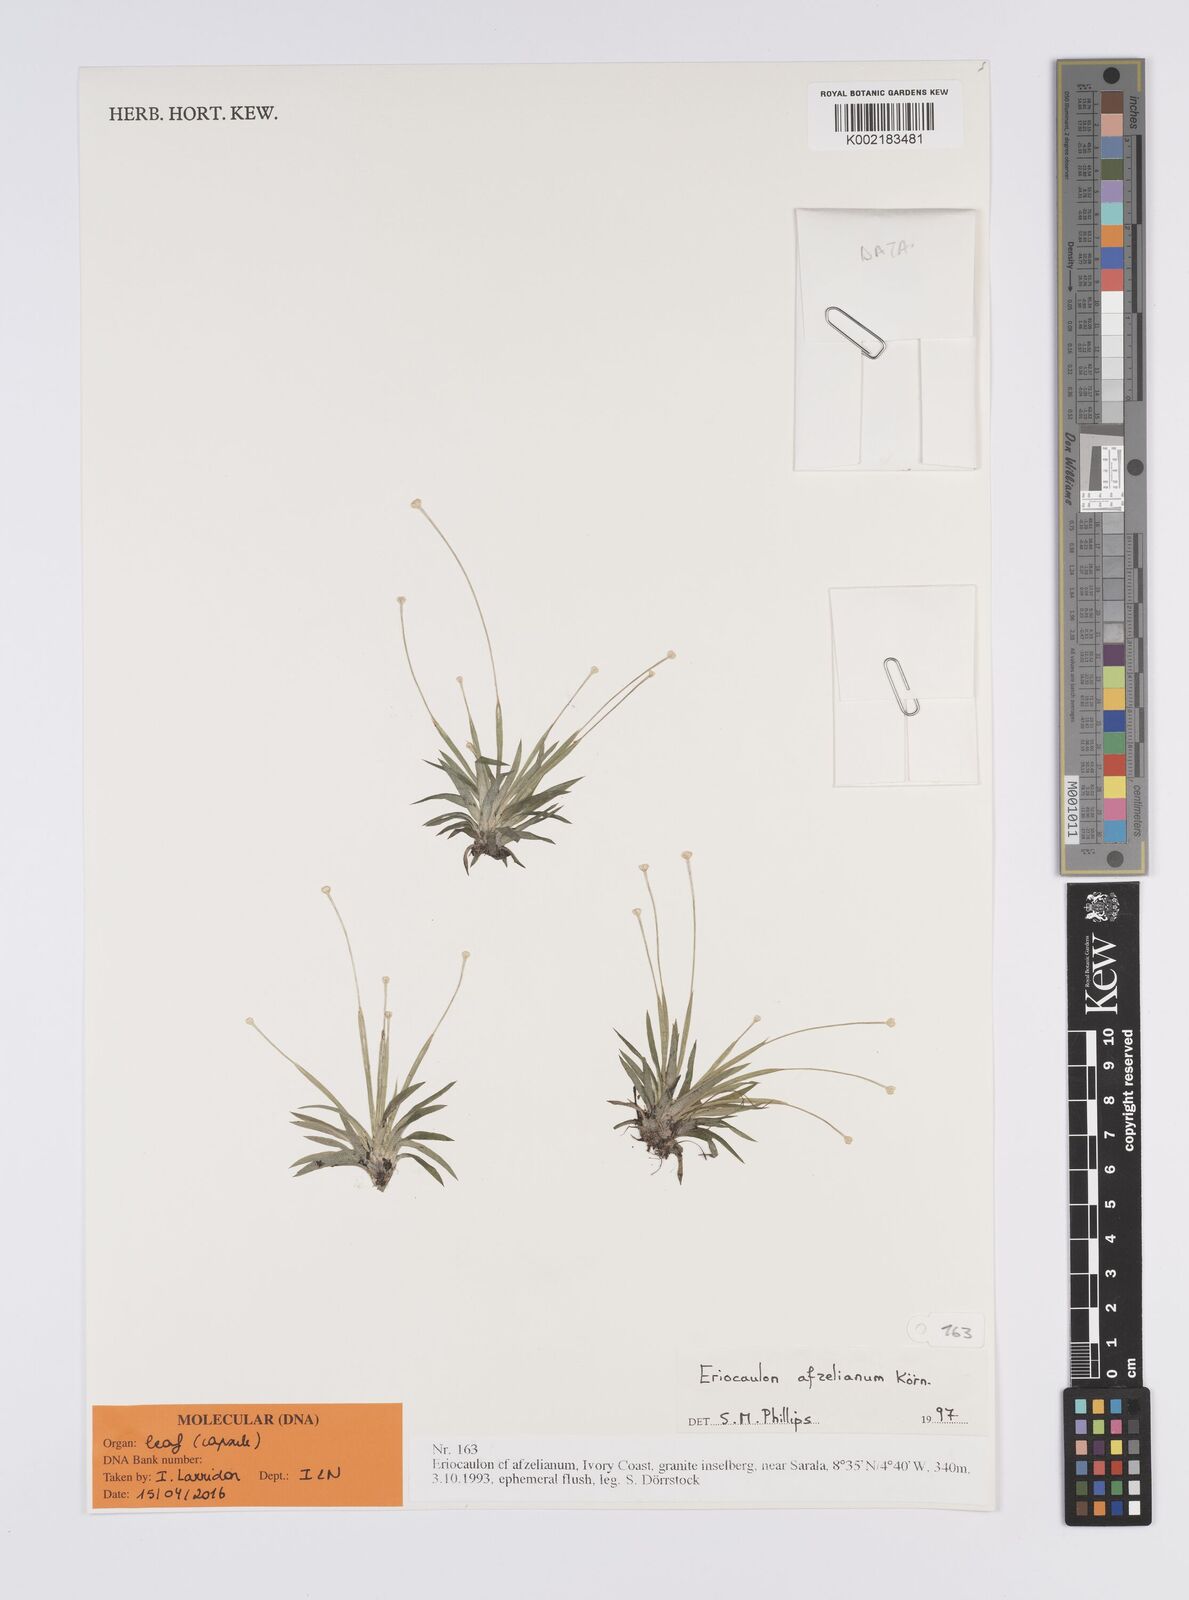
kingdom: Plantae
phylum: Tracheophyta
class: Liliopsida
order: Poales
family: Eriocaulaceae
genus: Eriocaulon
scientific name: Eriocaulon afzelianum
